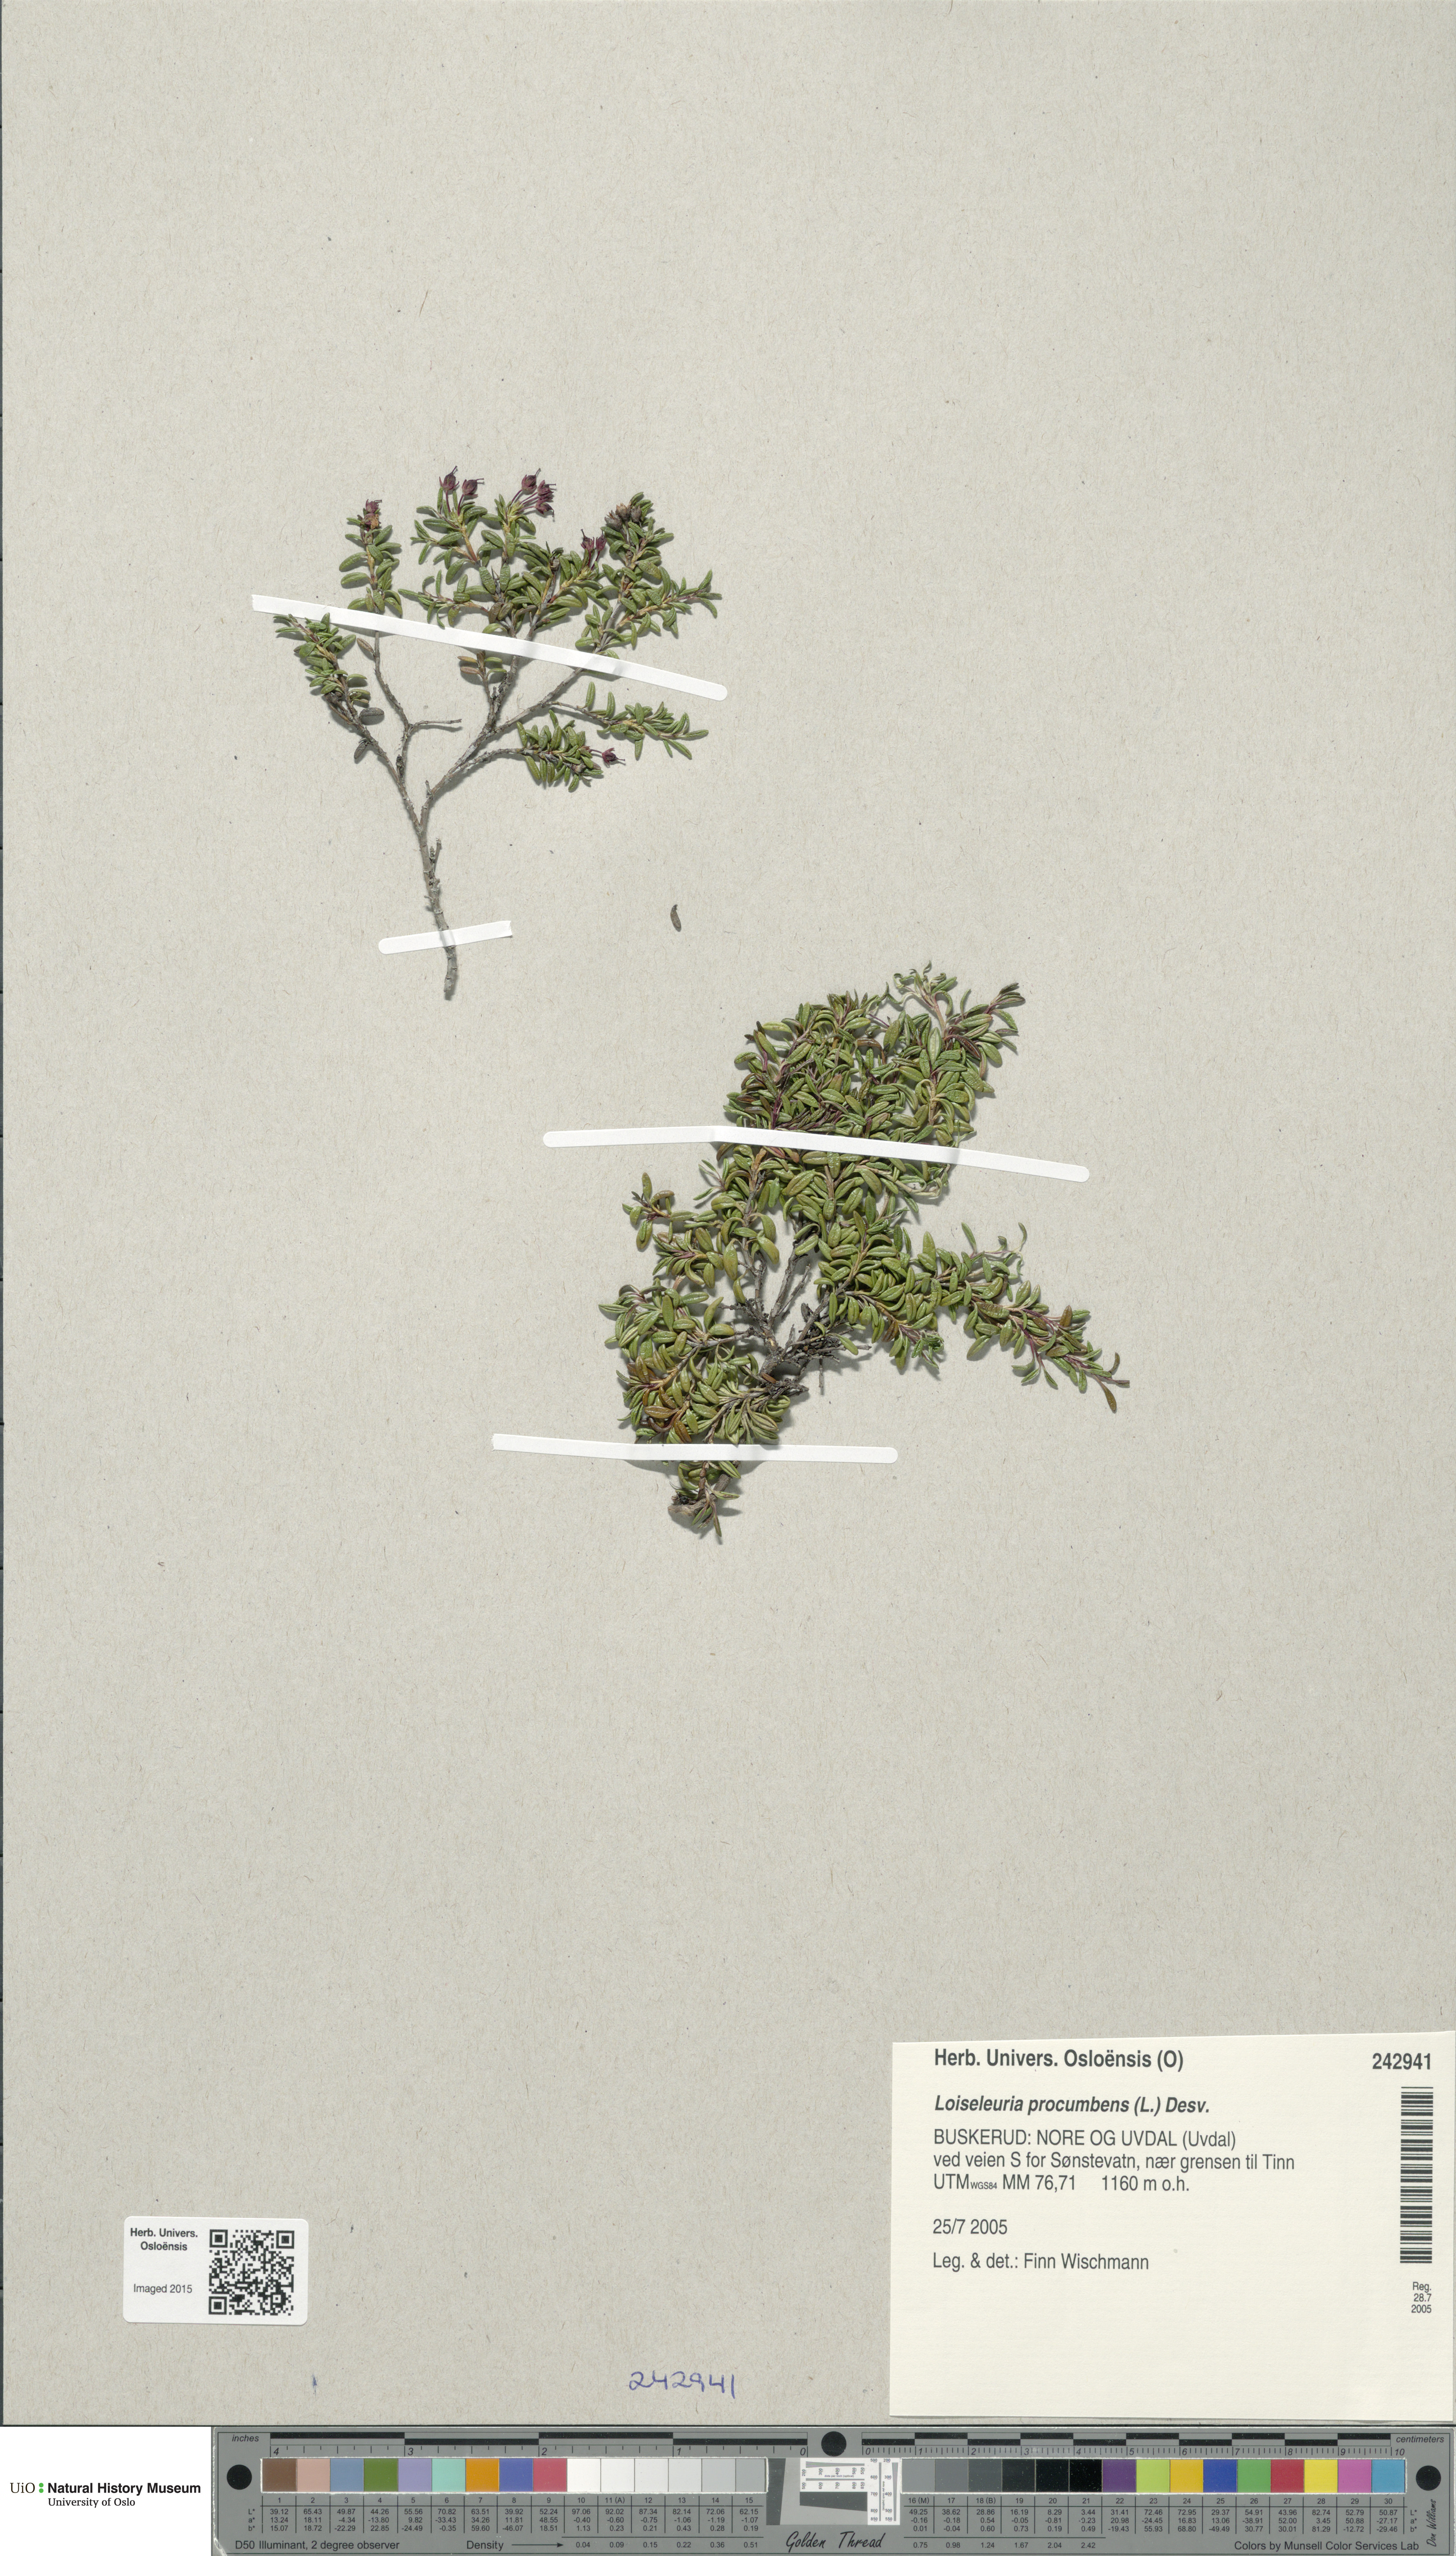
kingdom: Plantae
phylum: Tracheophyta
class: Magnoliopsida
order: Ericales
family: Ericaceae
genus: Kalmia
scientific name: Kalmia procumbens
